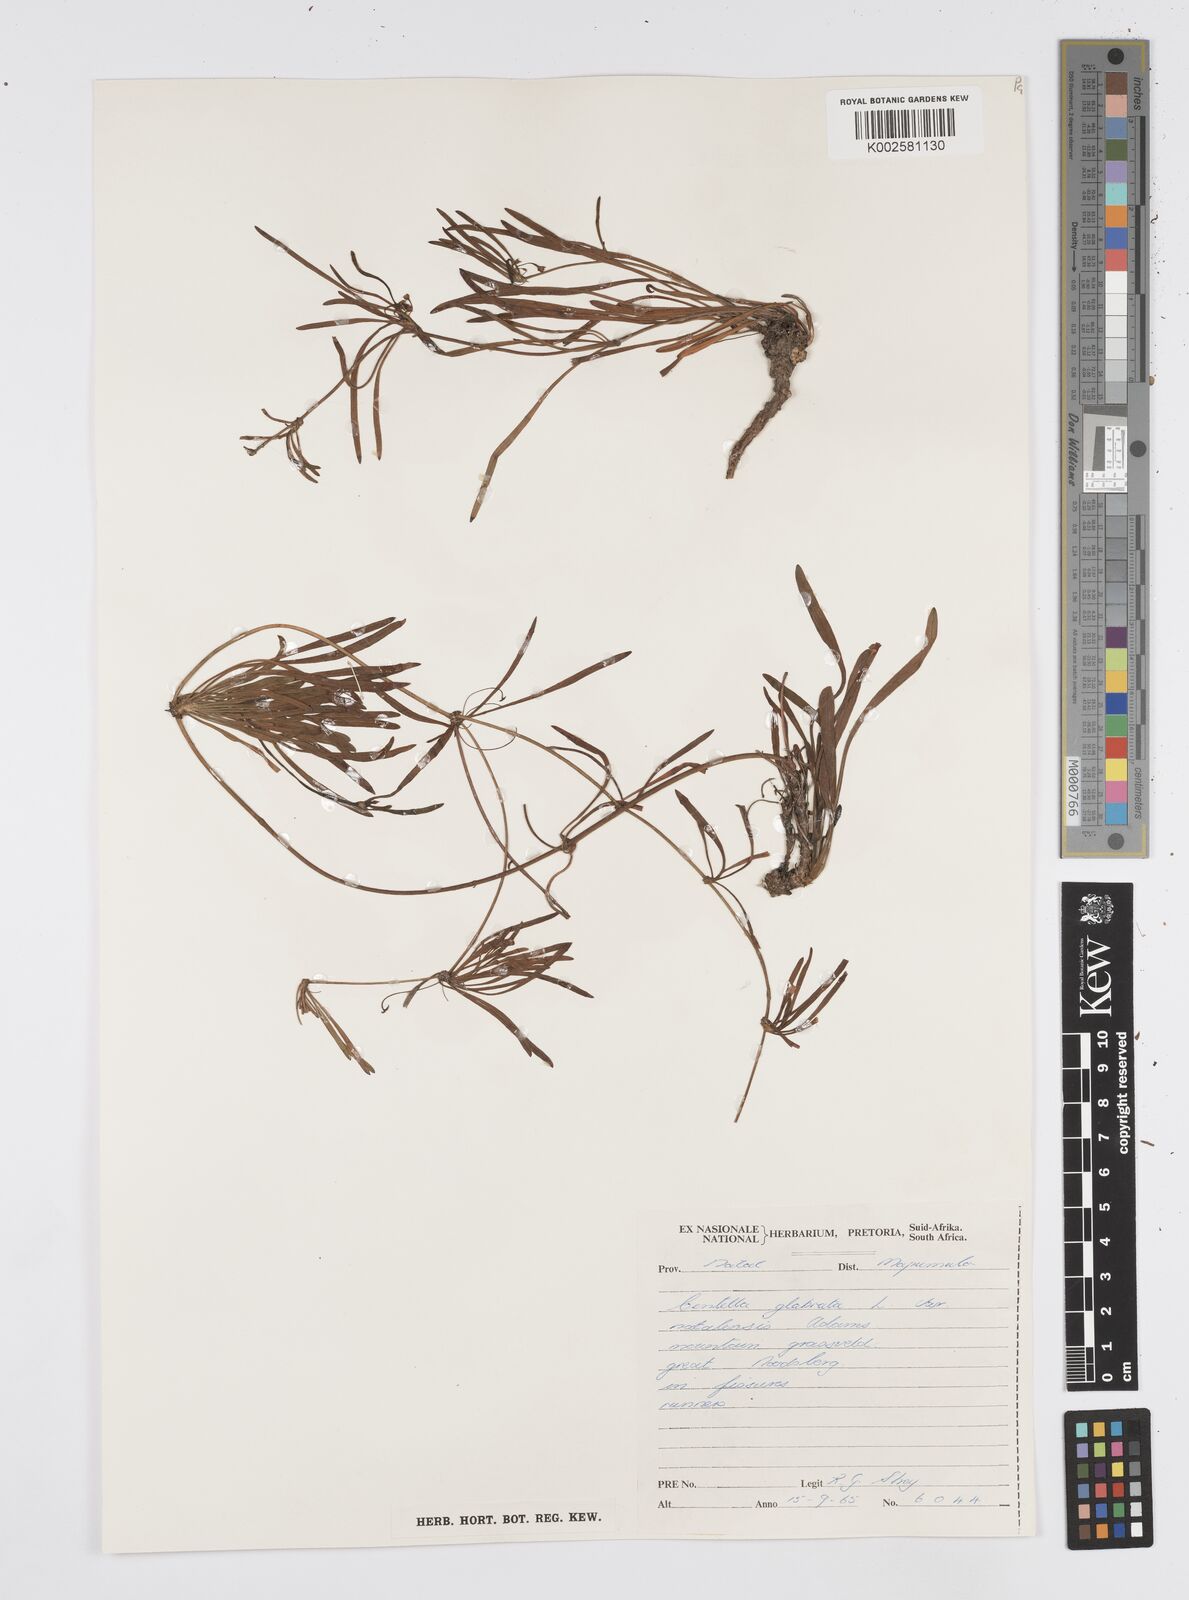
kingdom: Plantae
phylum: Tracheophyta
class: Magnoliopsida
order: Apiales
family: Apiaceae
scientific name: Apiaceae
